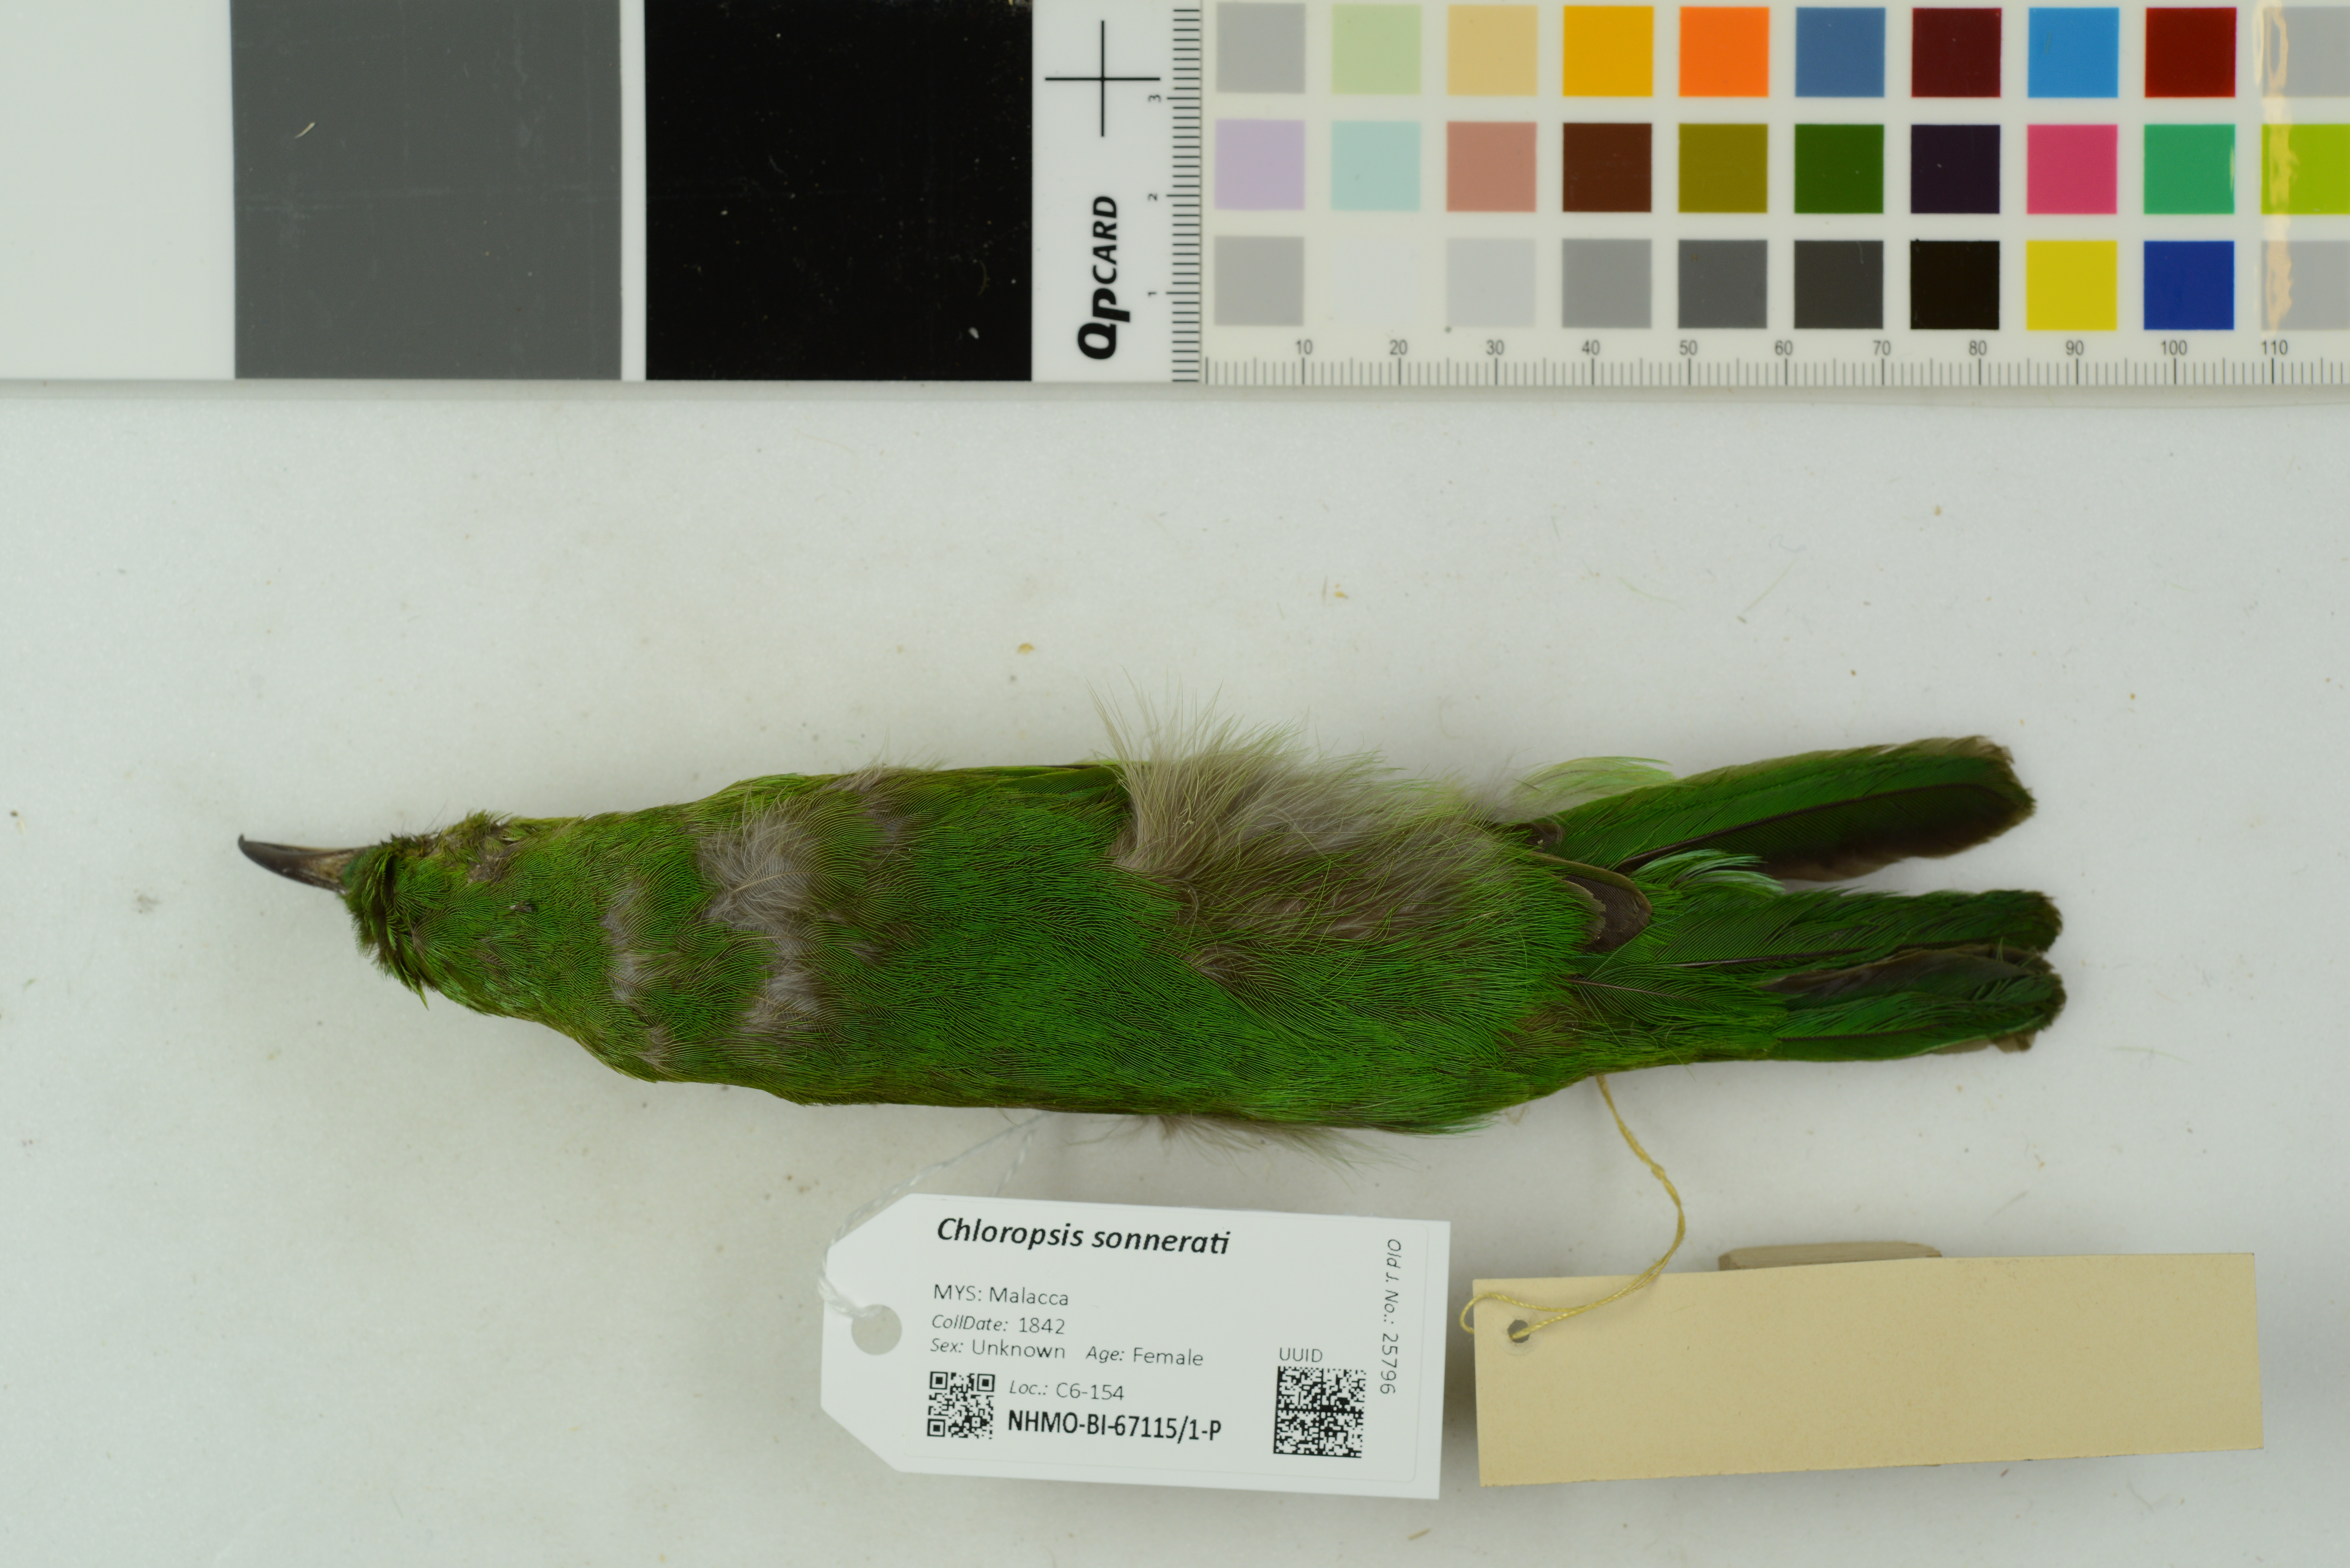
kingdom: Animalia
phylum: Chordata
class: Aves
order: Passeriformes
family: Chloropseidae
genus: Chloropsis
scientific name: Chloropsis sonnerati
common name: Greater green leafbird
